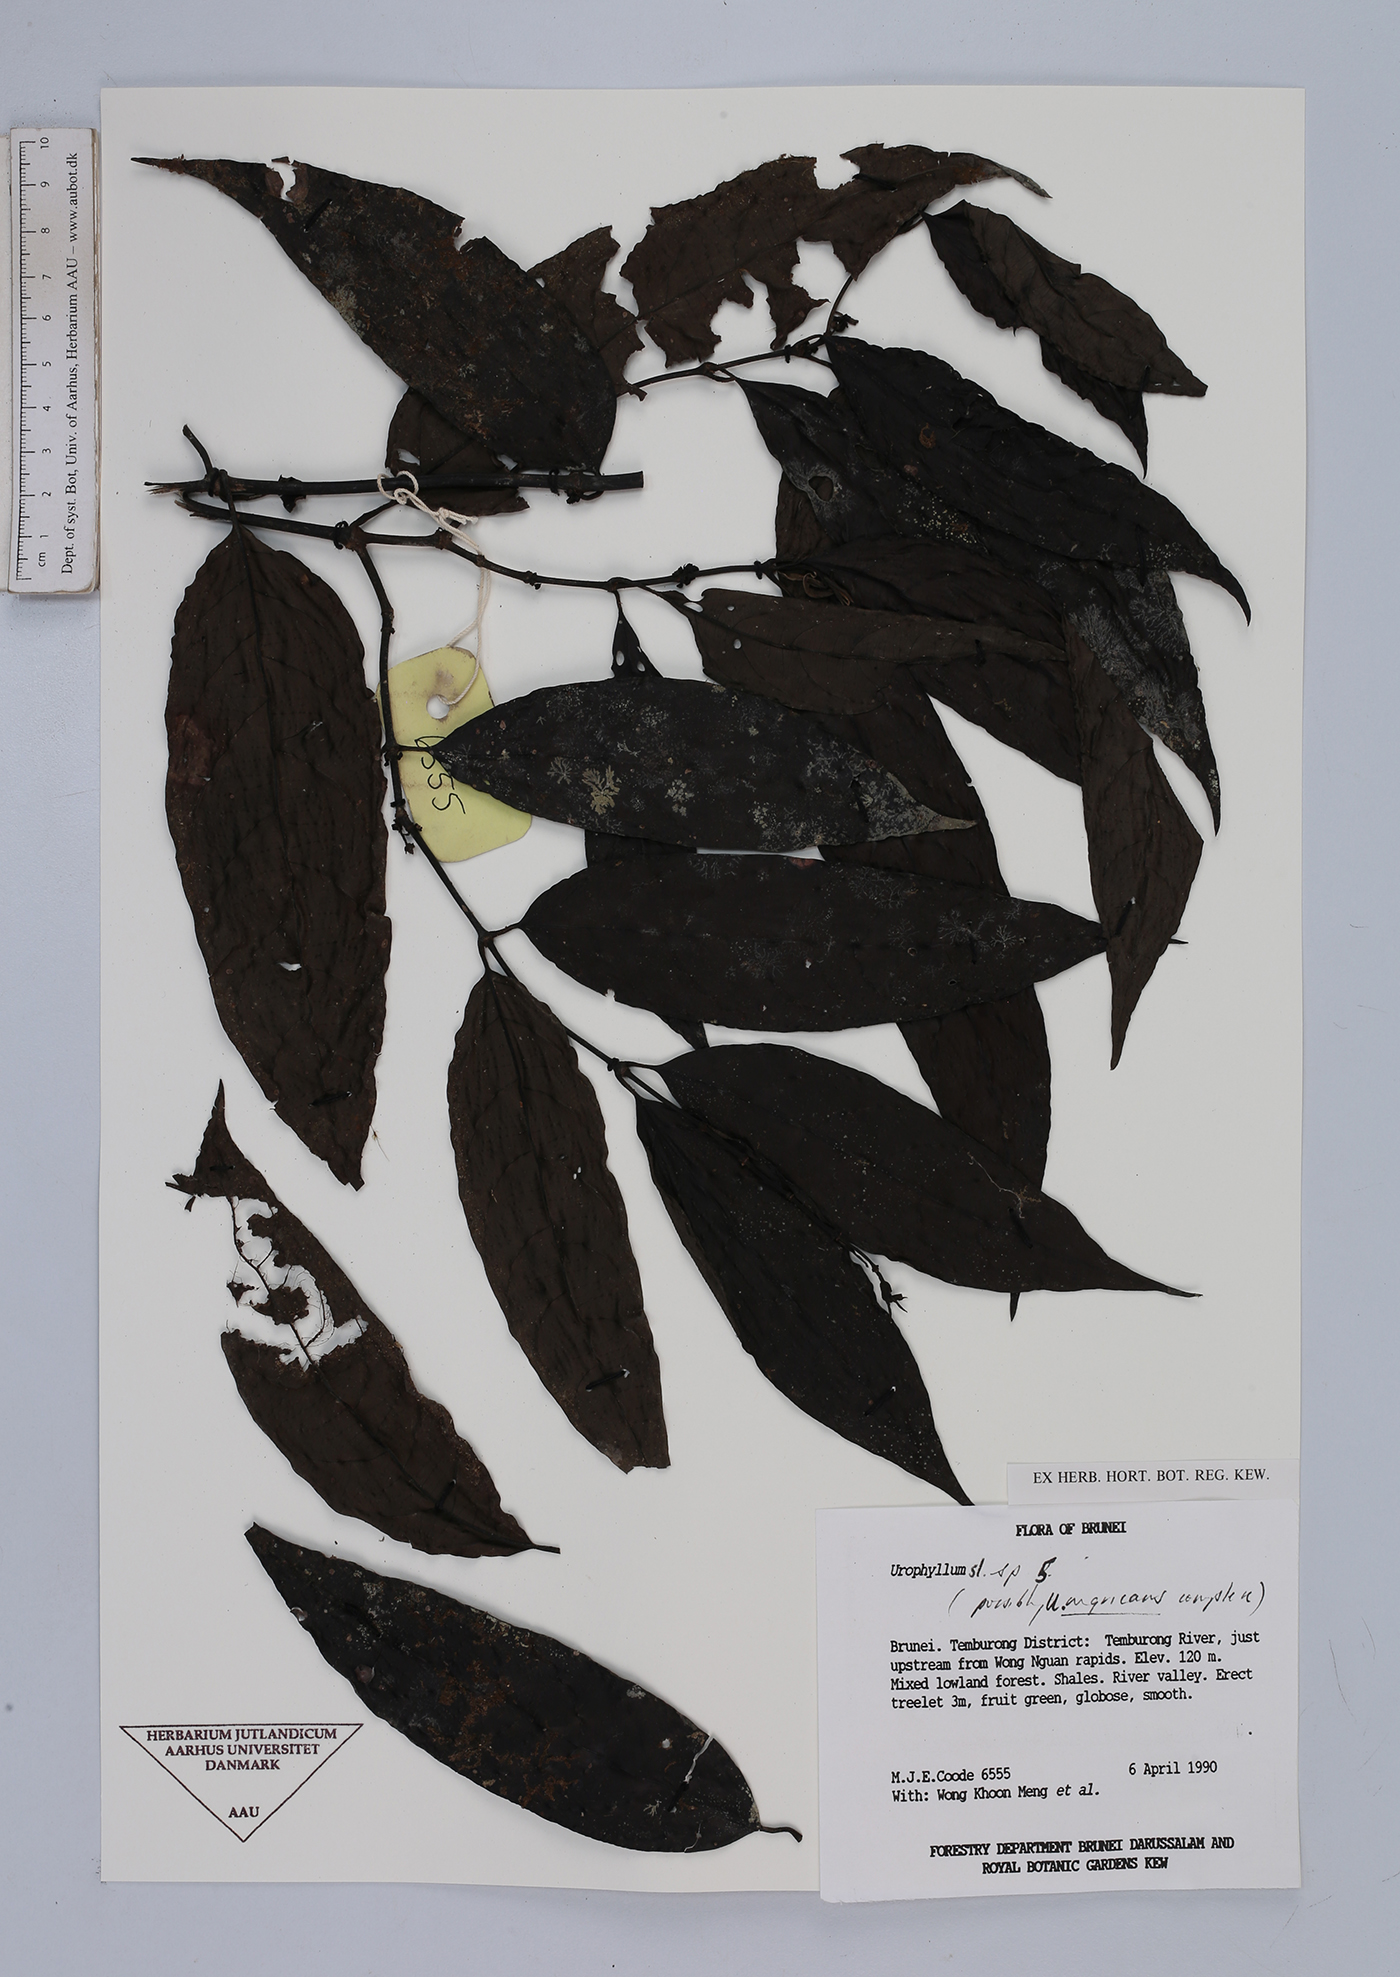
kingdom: Plantae
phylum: Tracheophyta
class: Magnoliopsida
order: Gentianales
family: Rubiaceae
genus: Urophyllum
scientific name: Urophyllum
